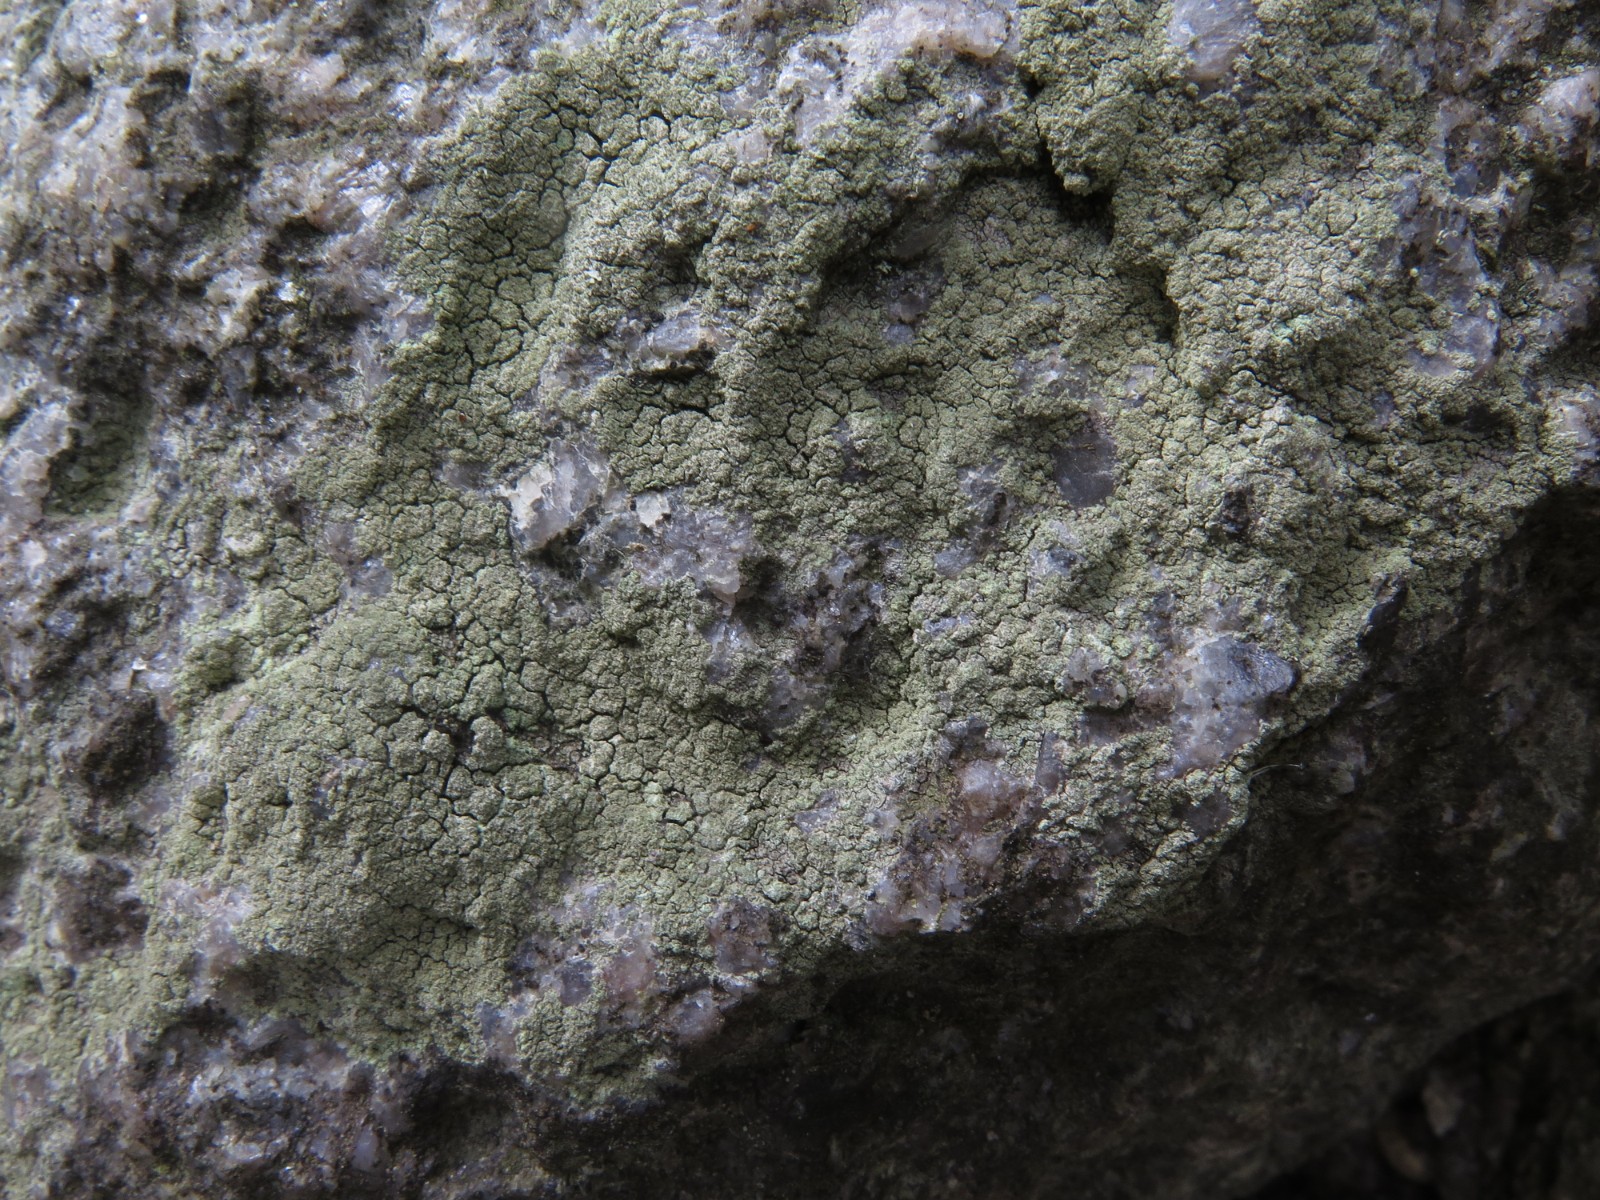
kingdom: Fungi
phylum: Ascomycota
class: Lecanoromycetes
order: Lecanorales
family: Lecanoraceae
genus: Lecidella
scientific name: Lecidella scabra
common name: skurvet skivelav
